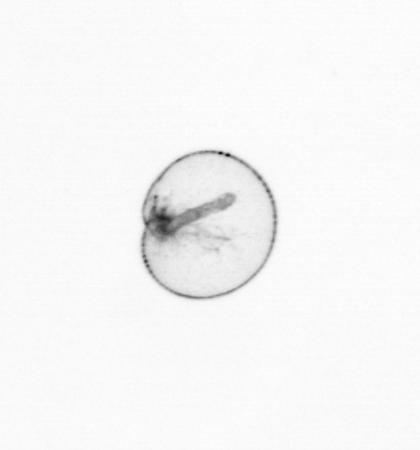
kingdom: Chromista
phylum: Myzozoa
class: Dinophyceae
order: Noctilucales
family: Noctilucaceae
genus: Noctiluca
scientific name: Noctiluca scintillans
